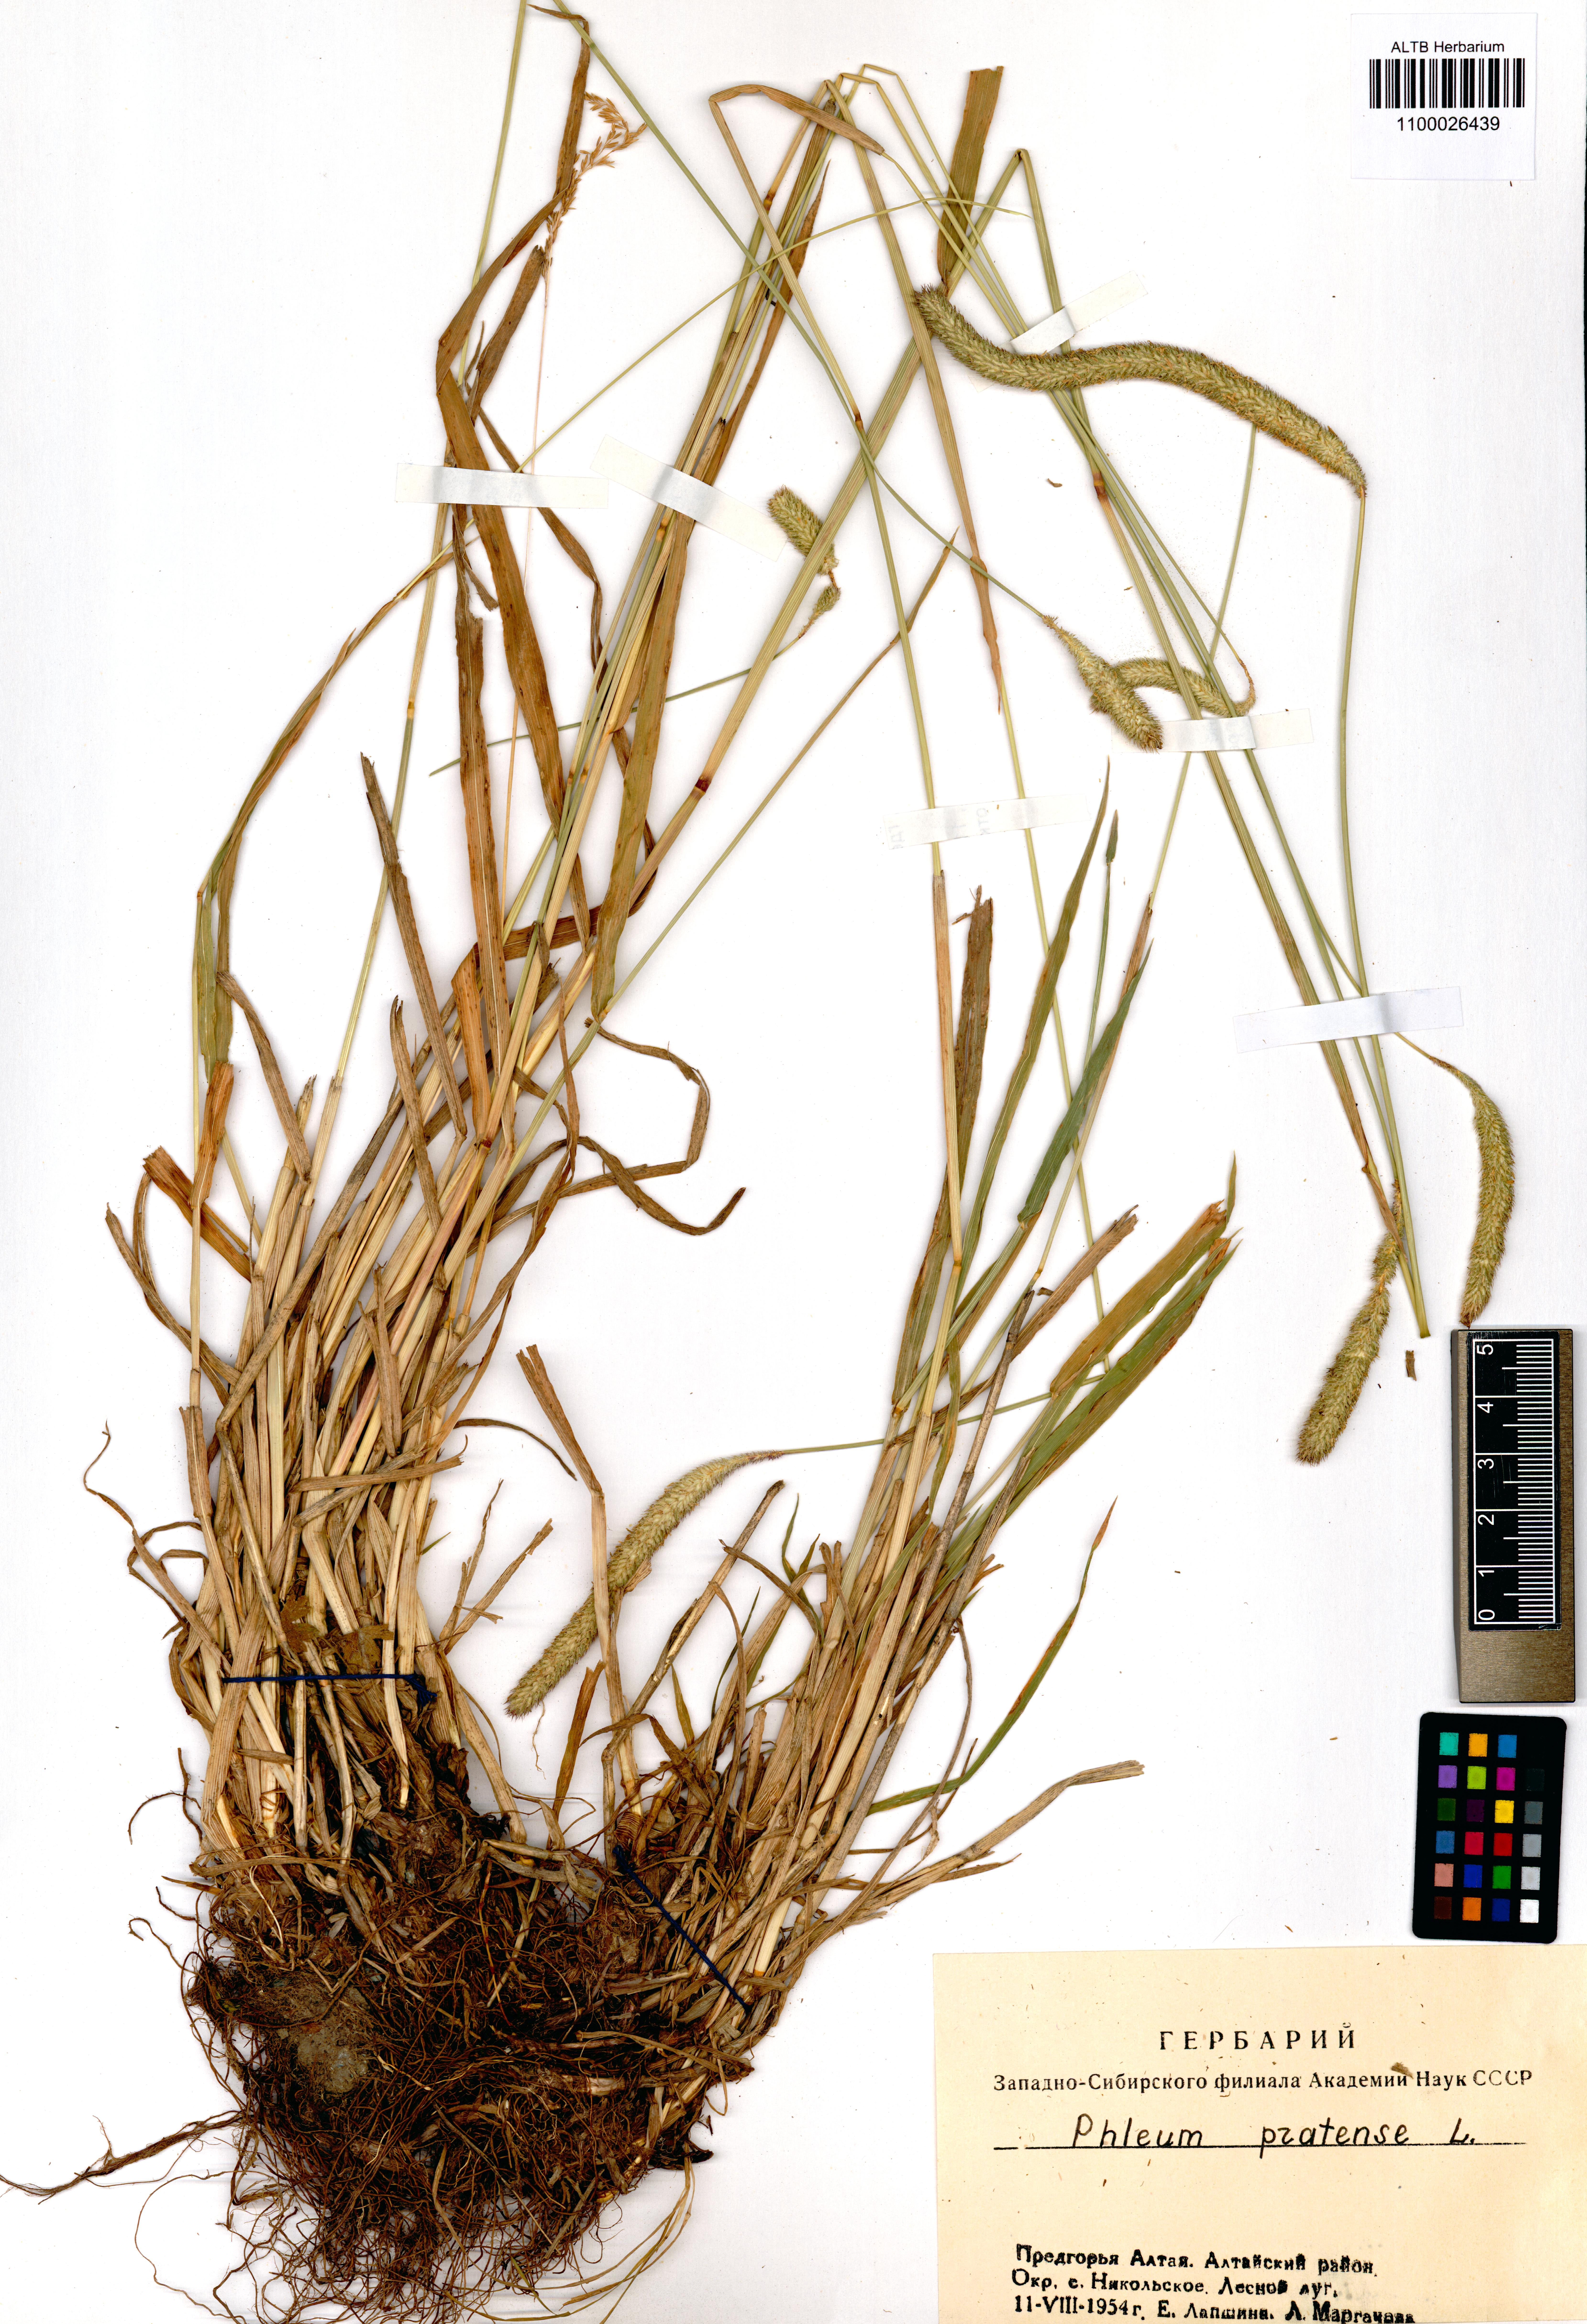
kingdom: Plantae
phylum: Tracheophyta
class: Liliopsida
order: Poales
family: Poaceae
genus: Phleum
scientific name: Phleum pratense
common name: Timothy grass
